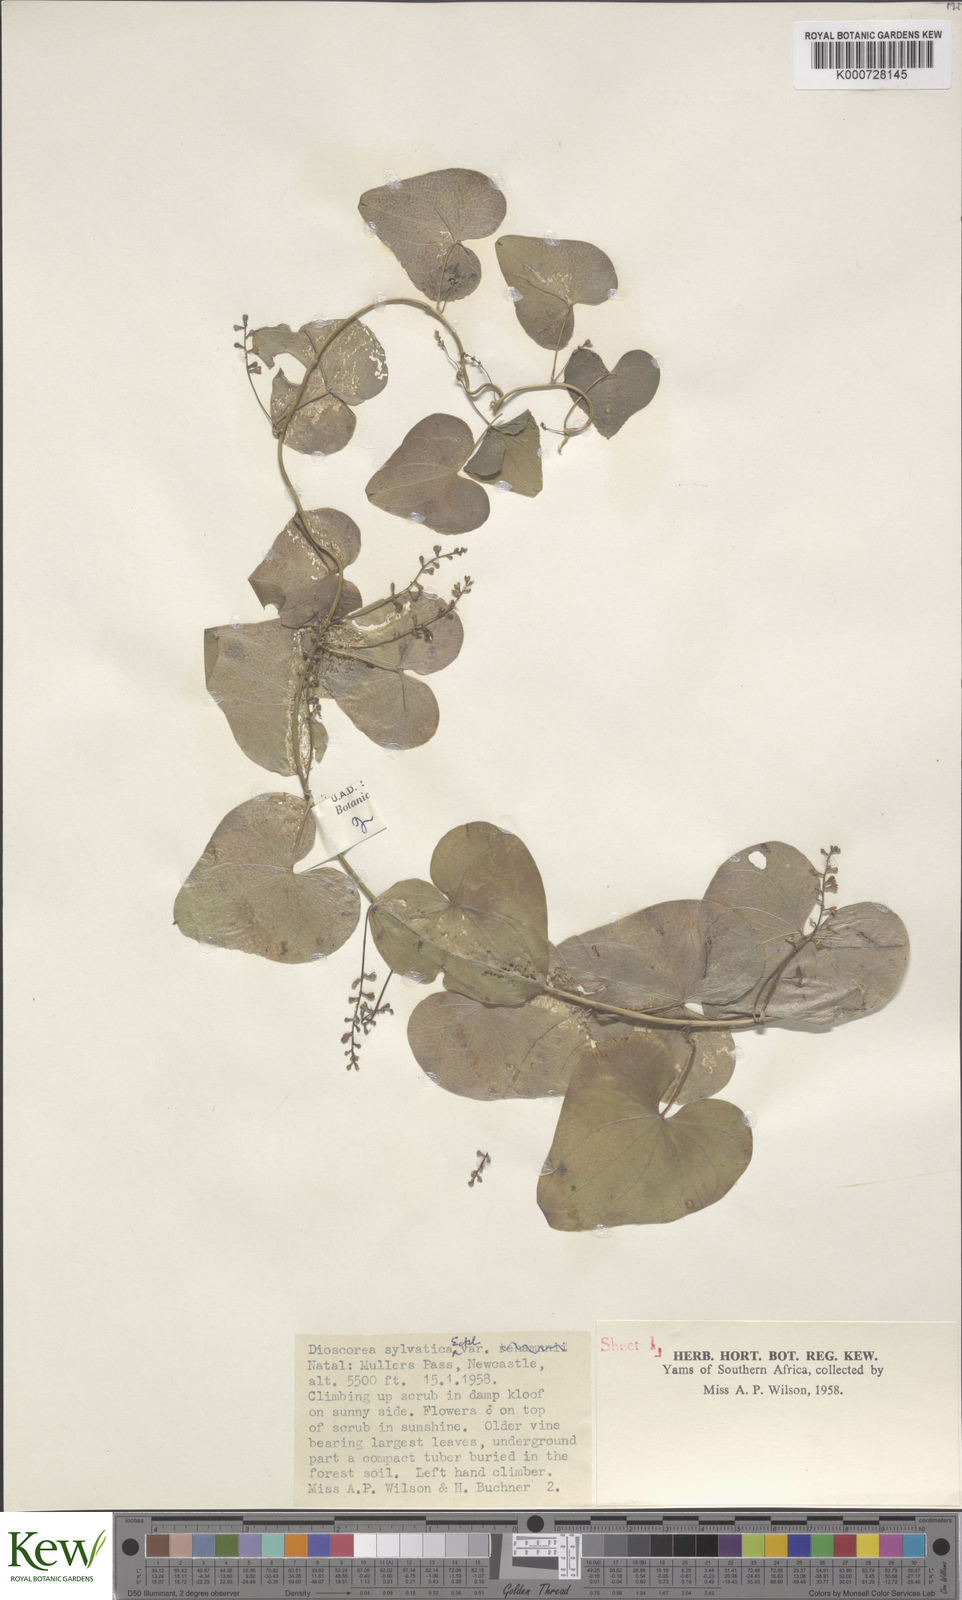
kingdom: Plantae
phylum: Tracheophyta
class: Liliopsida
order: Dioscoreales
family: Dioscoreaceae
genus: Dioscorea
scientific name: Dioscorea sylvatica
